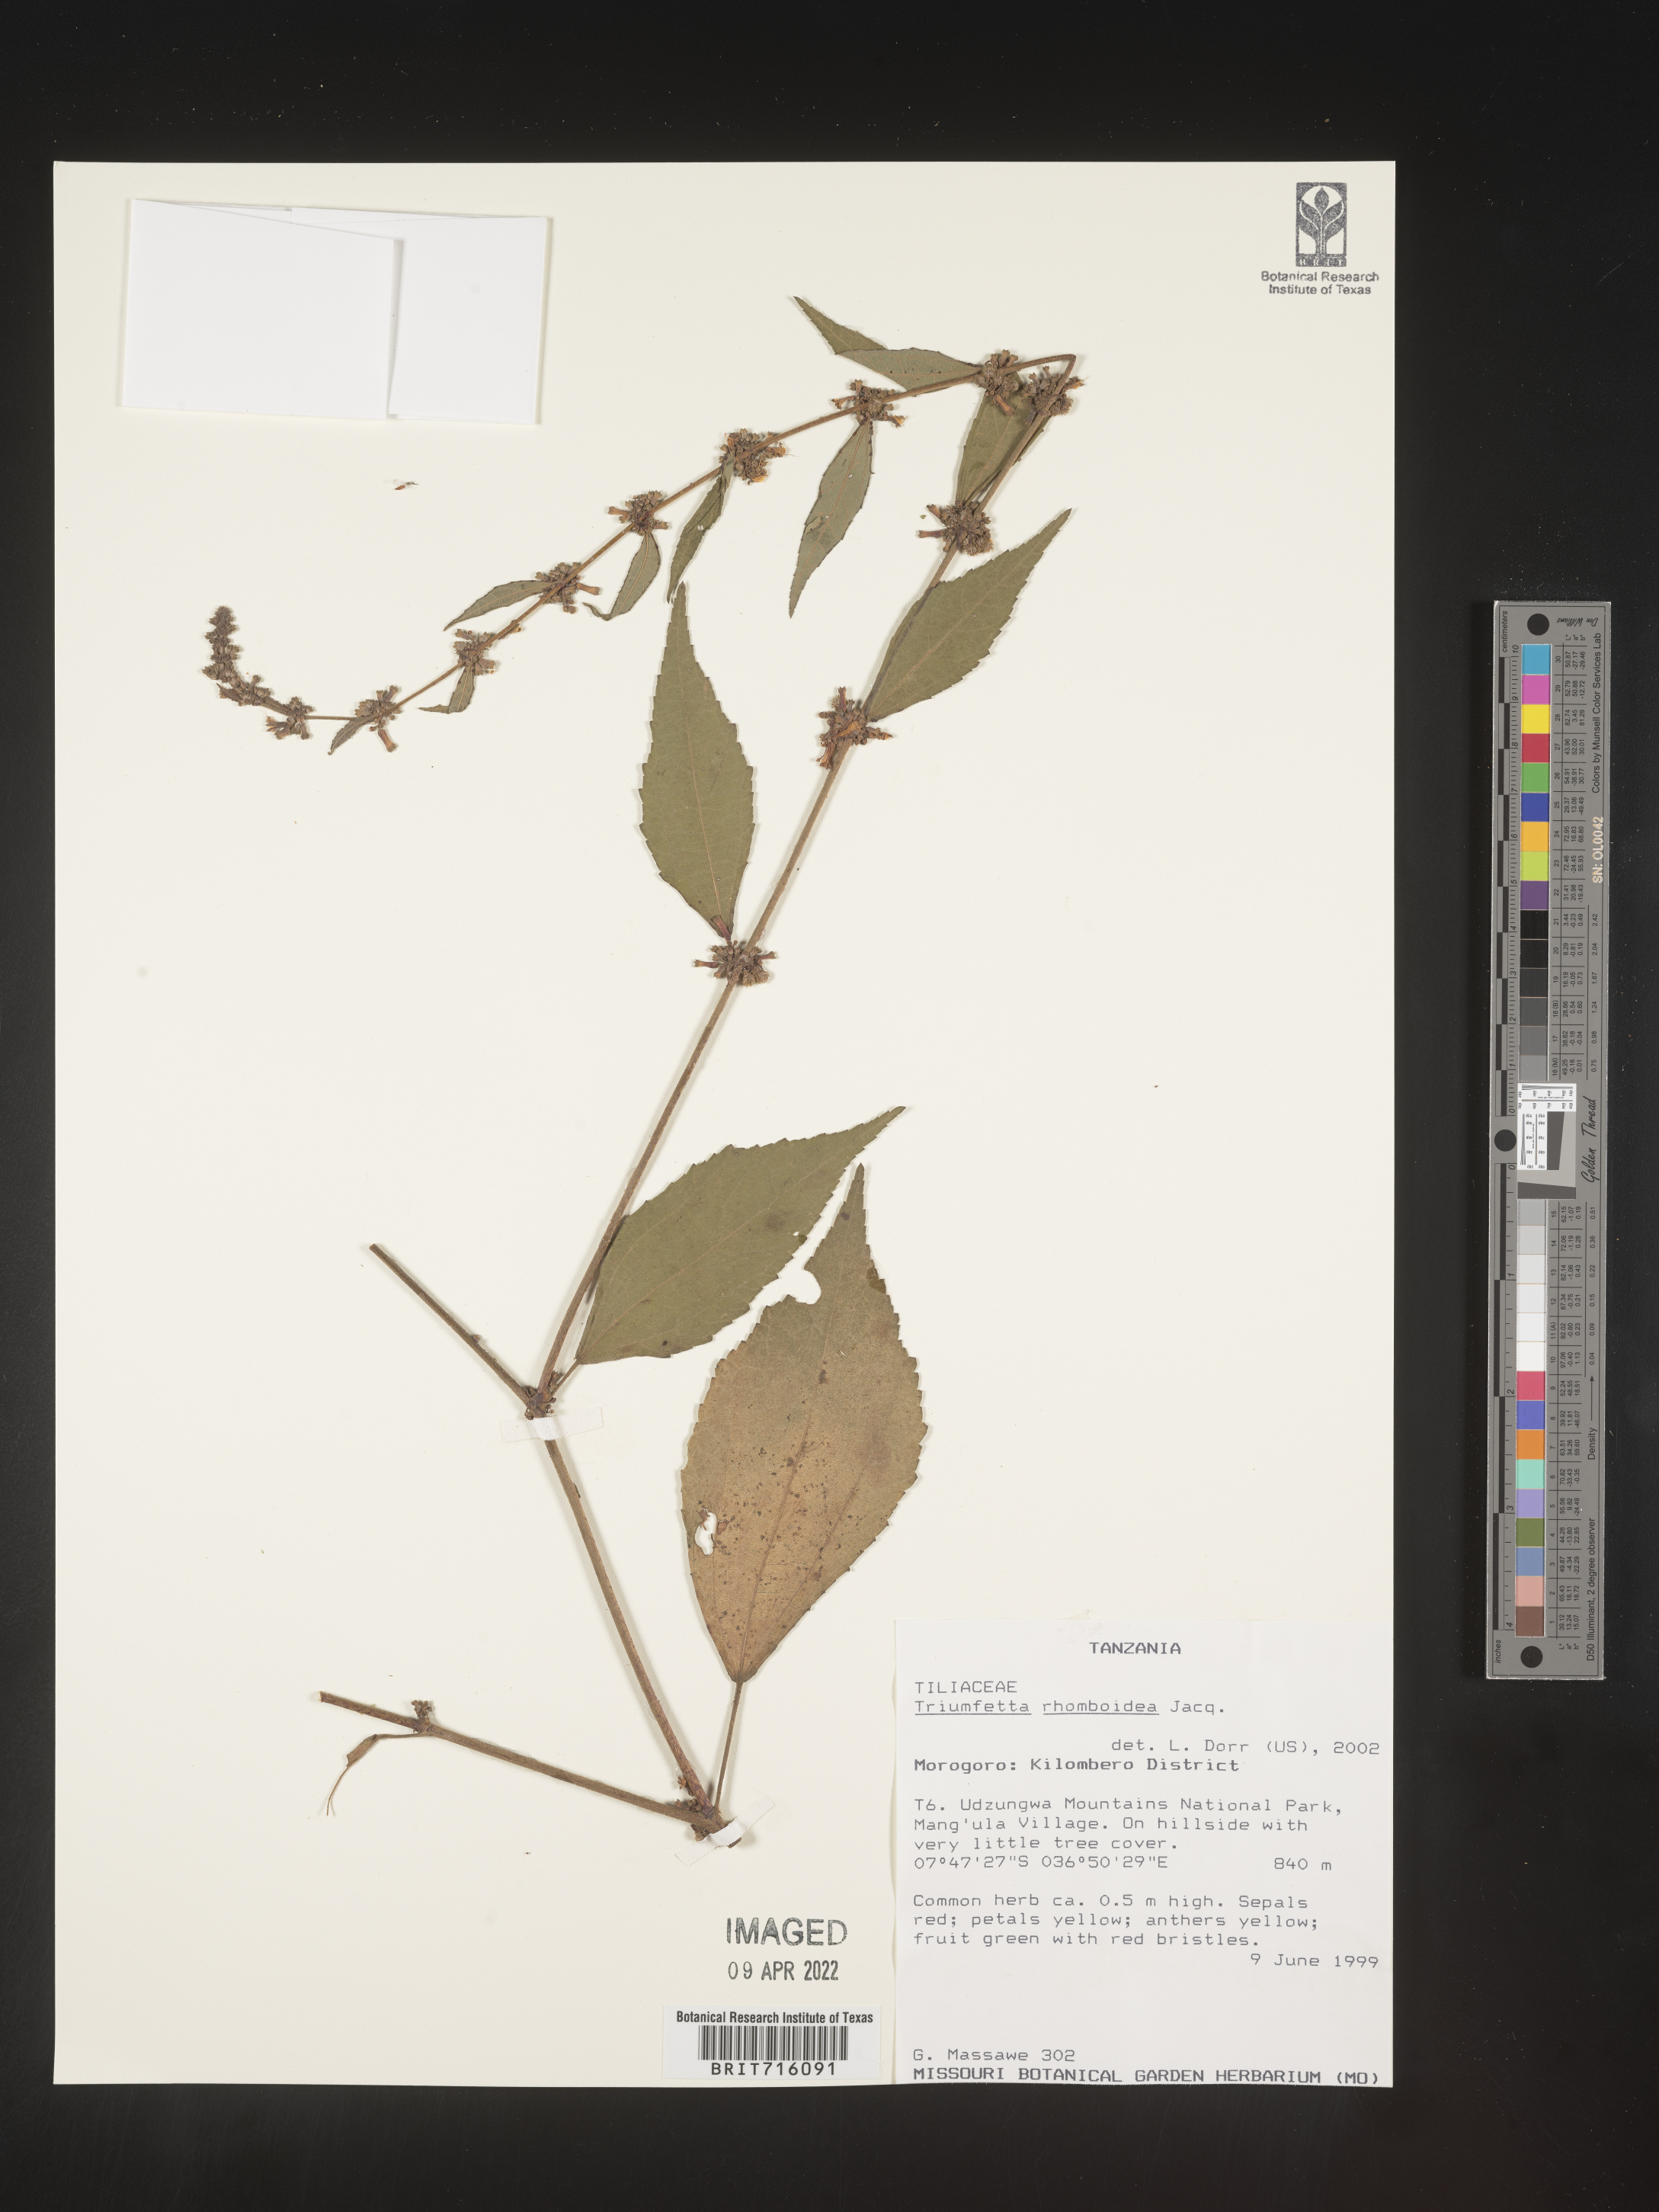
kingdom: Plantae
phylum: Tracheophyta
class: Magnoliopsida
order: Malvales
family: Malvaceae
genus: Triumfetta
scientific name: Triumfetta rhomboidea
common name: Diamond burbark
